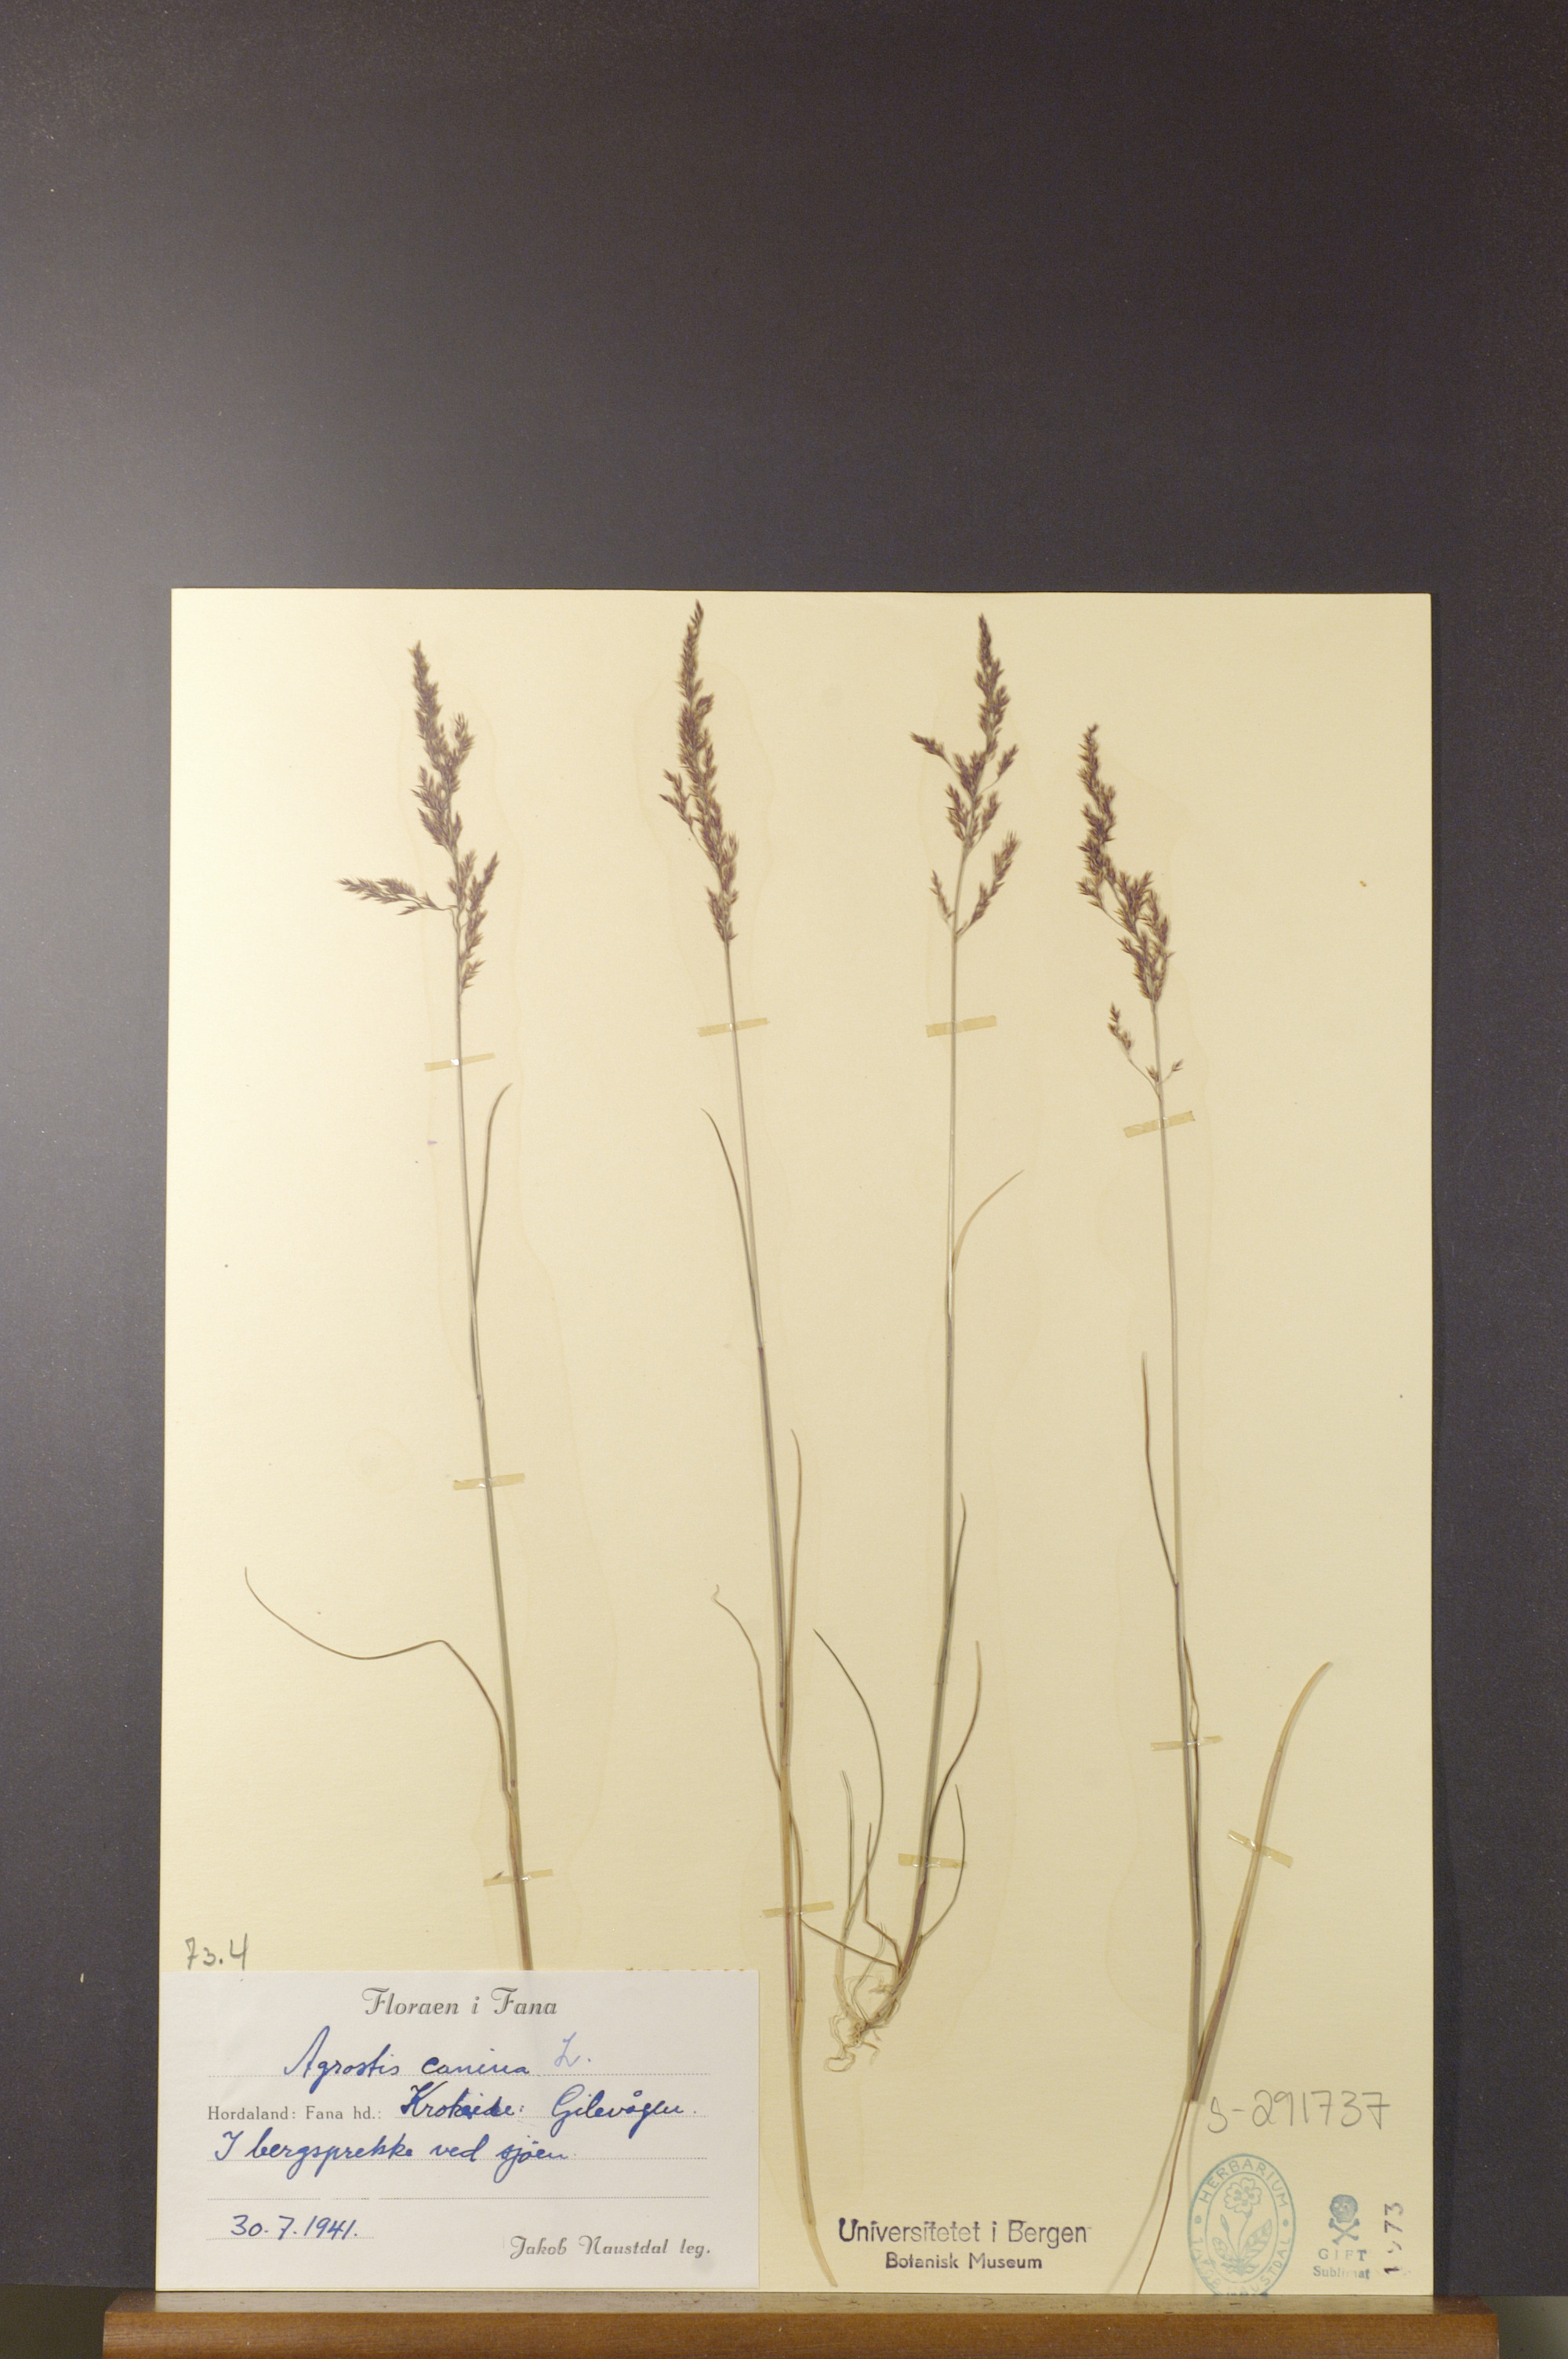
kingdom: Plantae
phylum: Tracheophyta
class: Liliopsida
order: Poales
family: Poaceae
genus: Agrostis
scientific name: Agrostis canina
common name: Velvet bent
